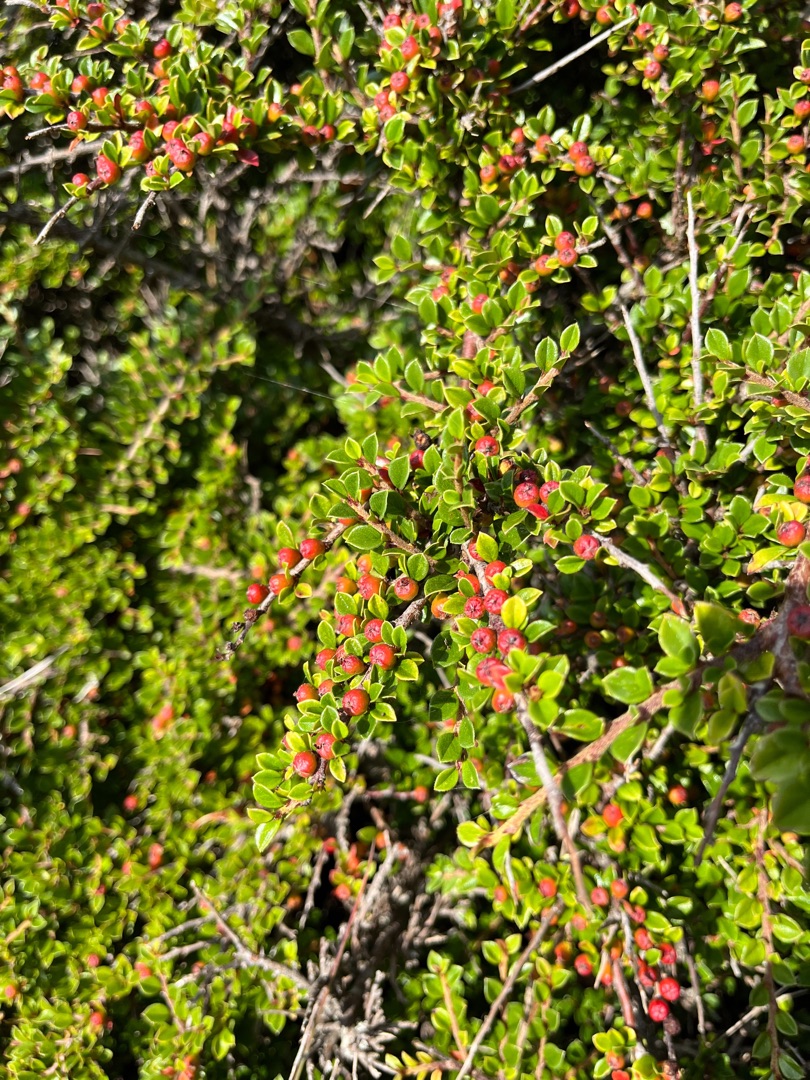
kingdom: Plantae
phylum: Tracheophyta
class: Magnoliopsida
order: Rosales
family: Rosaceae
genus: Cotoneaster
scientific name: Cotoneaster horizontalis
